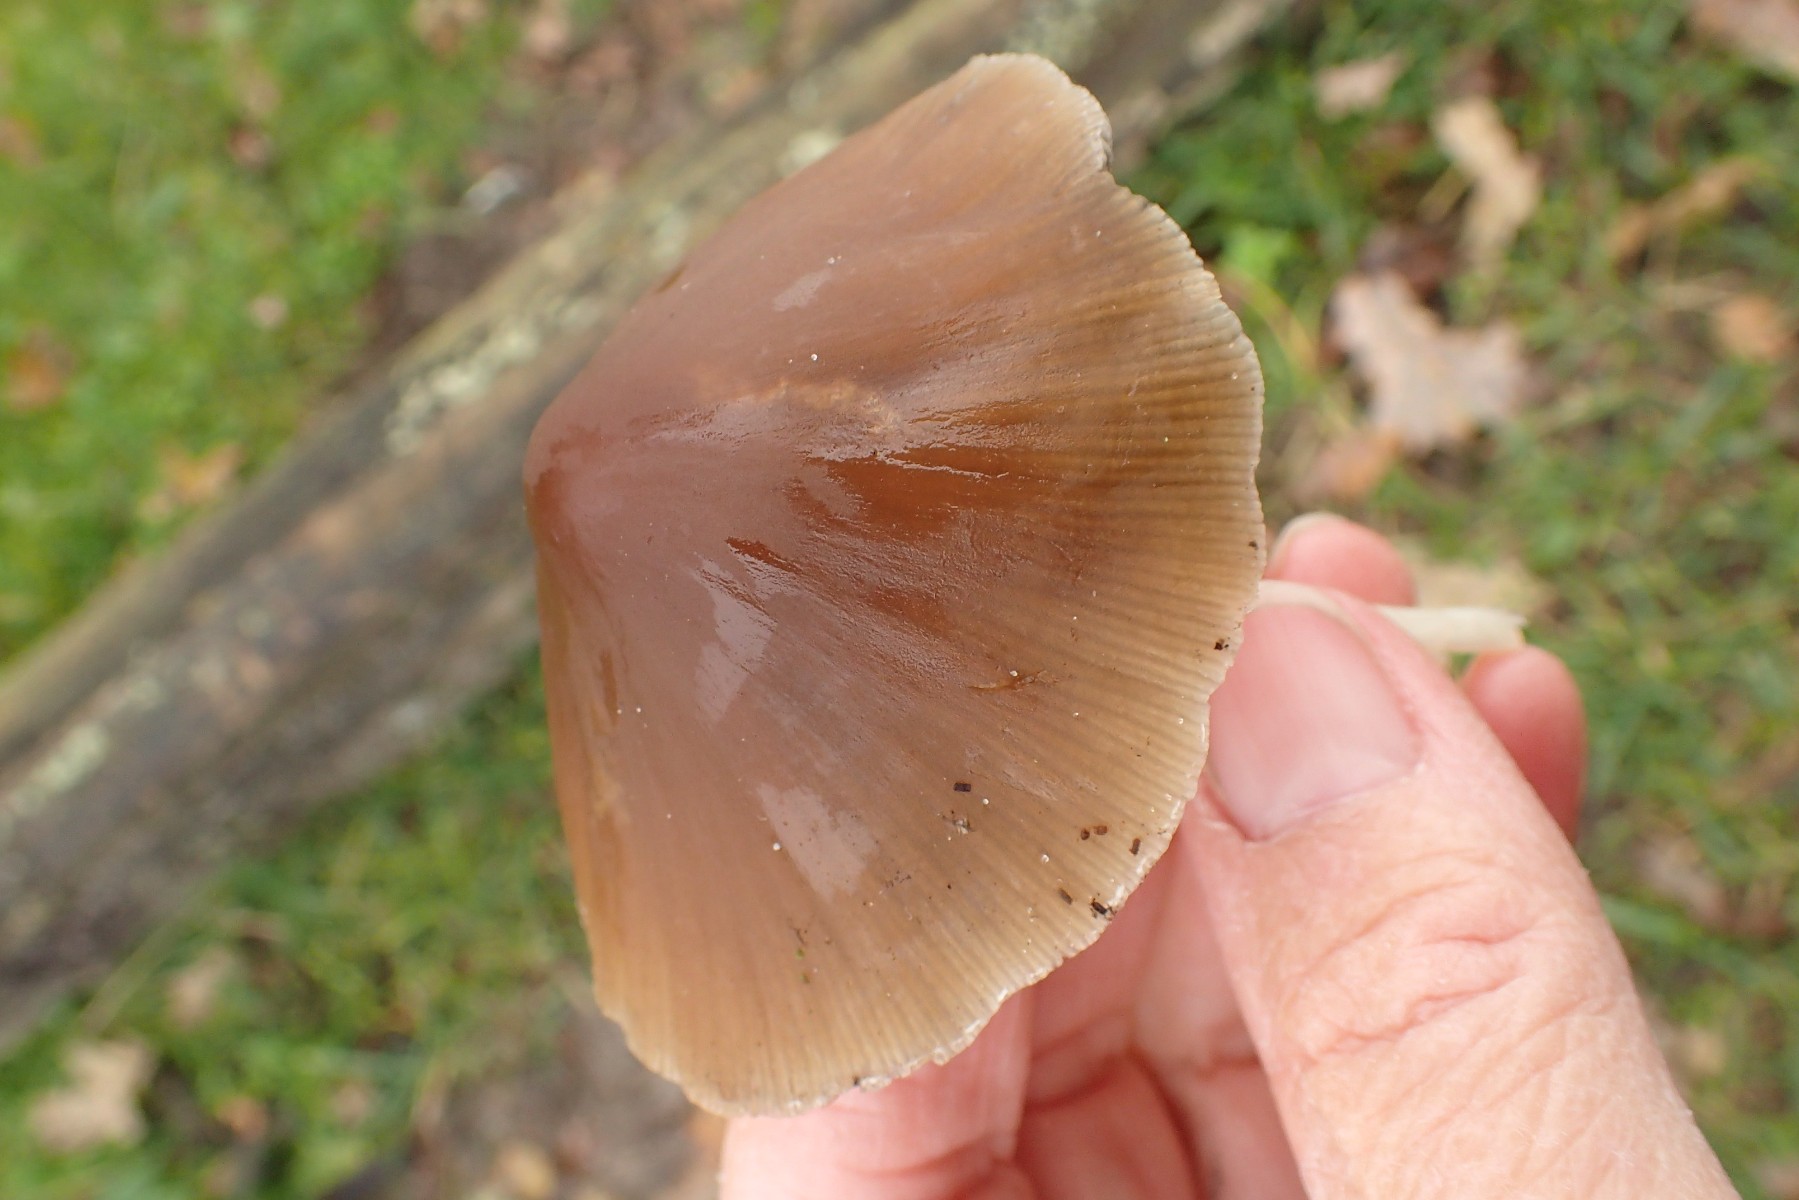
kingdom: Fungi
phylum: Basidiomycota
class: Agaricomycetes
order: Agaricales
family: Psathyrellaceae
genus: Psathyrella
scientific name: Psathyrella fusca
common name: gråbladet mørkhat
